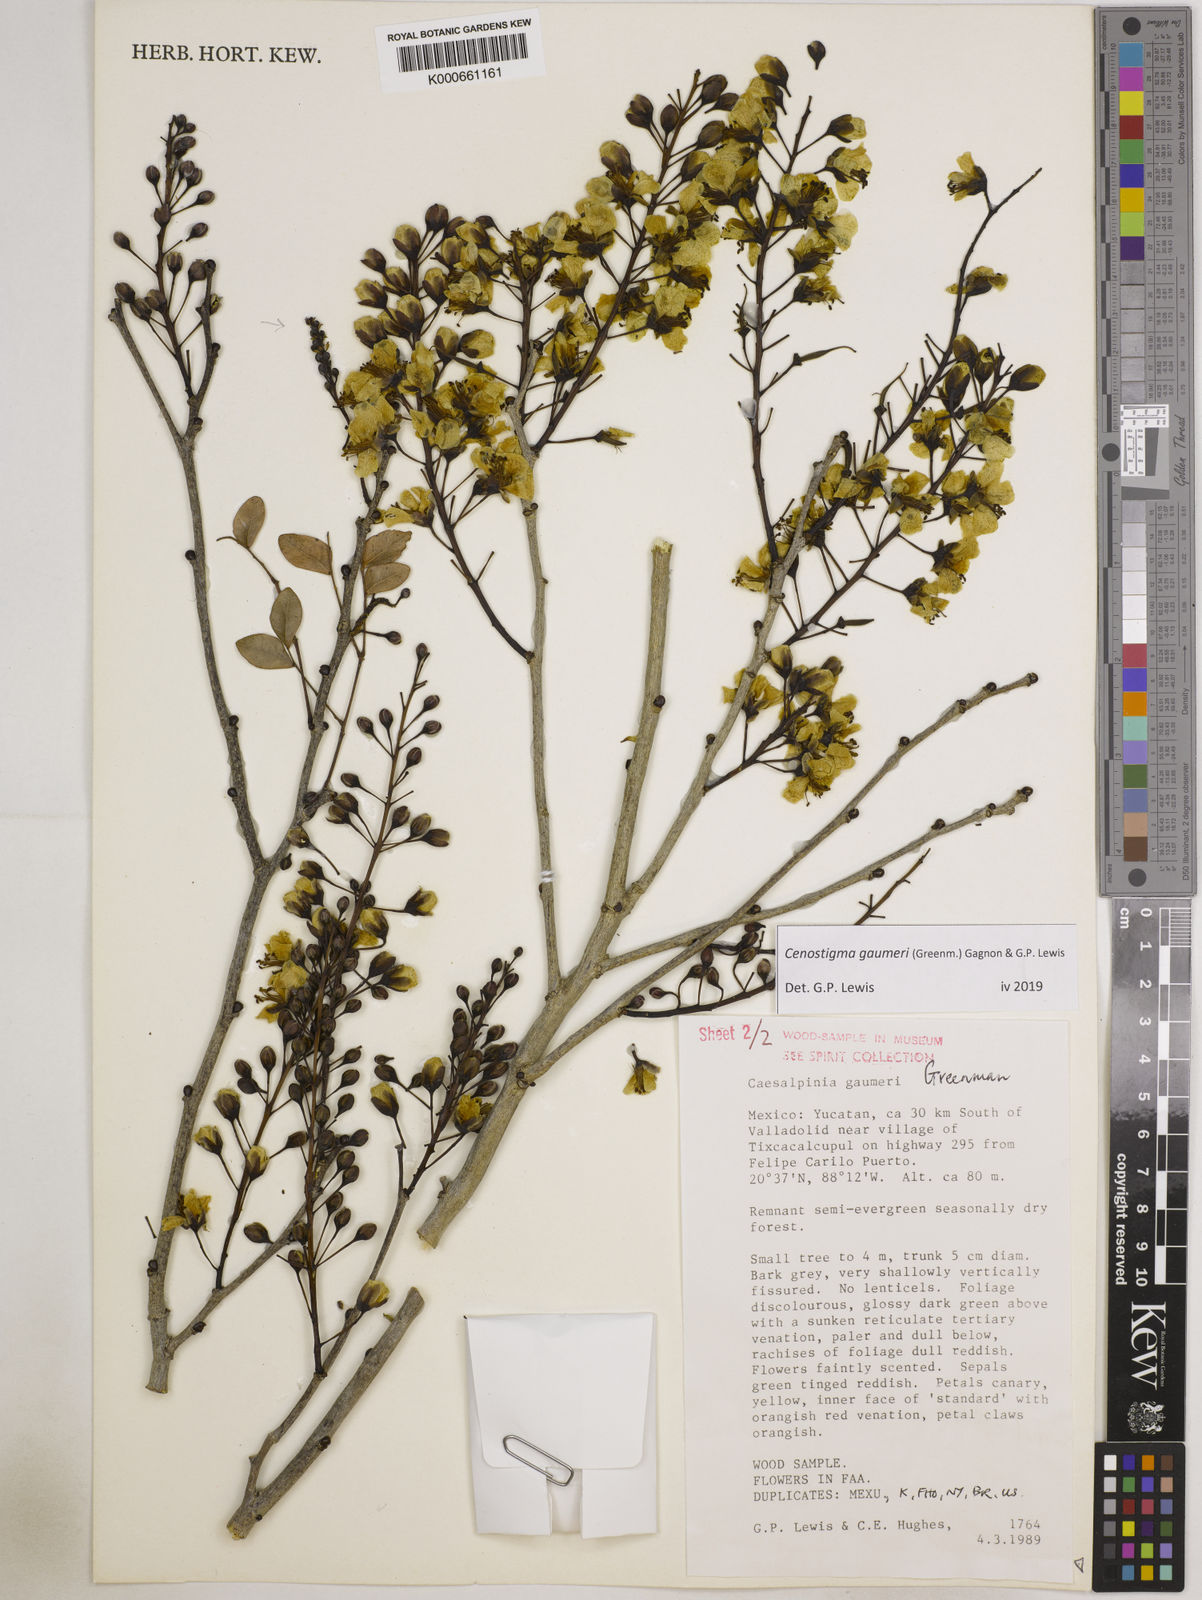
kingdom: Plantae
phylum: Tracheophyta
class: Magnoliopsida
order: Fabales
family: Fabaceae
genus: Cenostigma
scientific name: Cenostigma gaumeri
